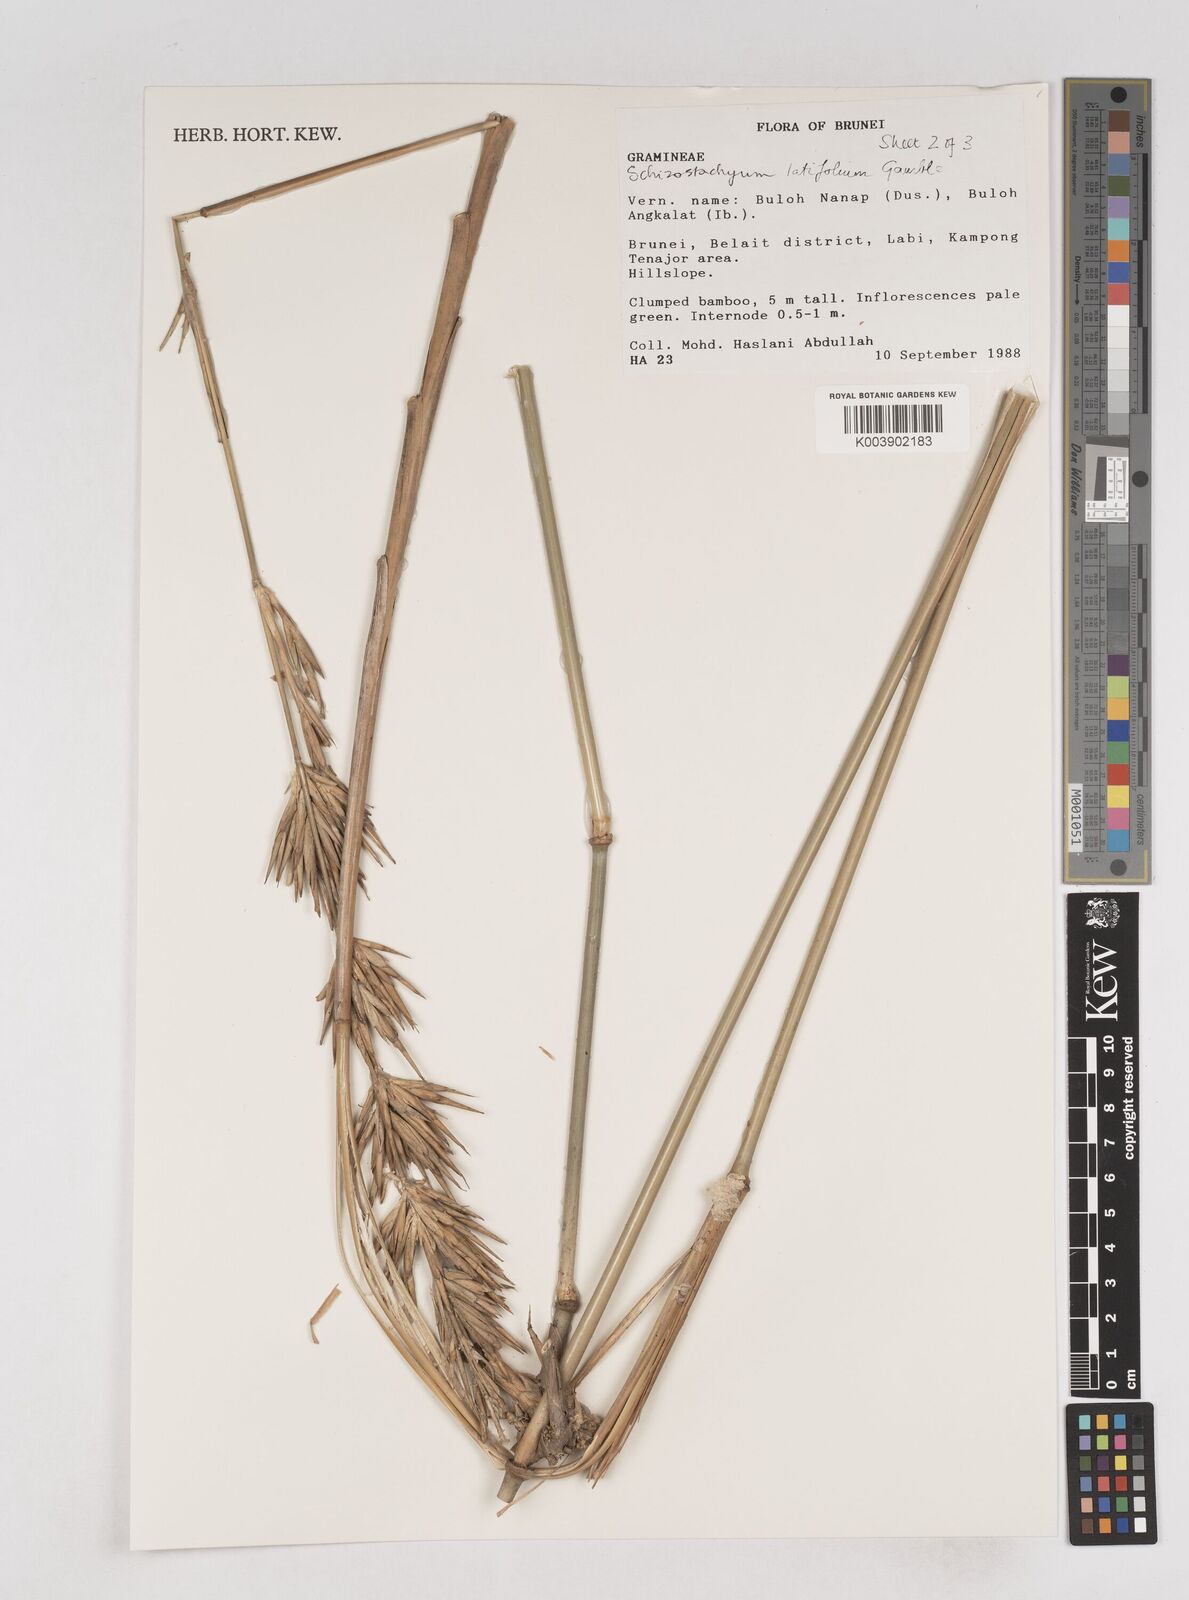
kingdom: Plantae
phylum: Tracheophyta
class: Liliopsida
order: Poales
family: Poaceae
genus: Schizostachyum
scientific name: Schizostachyum
